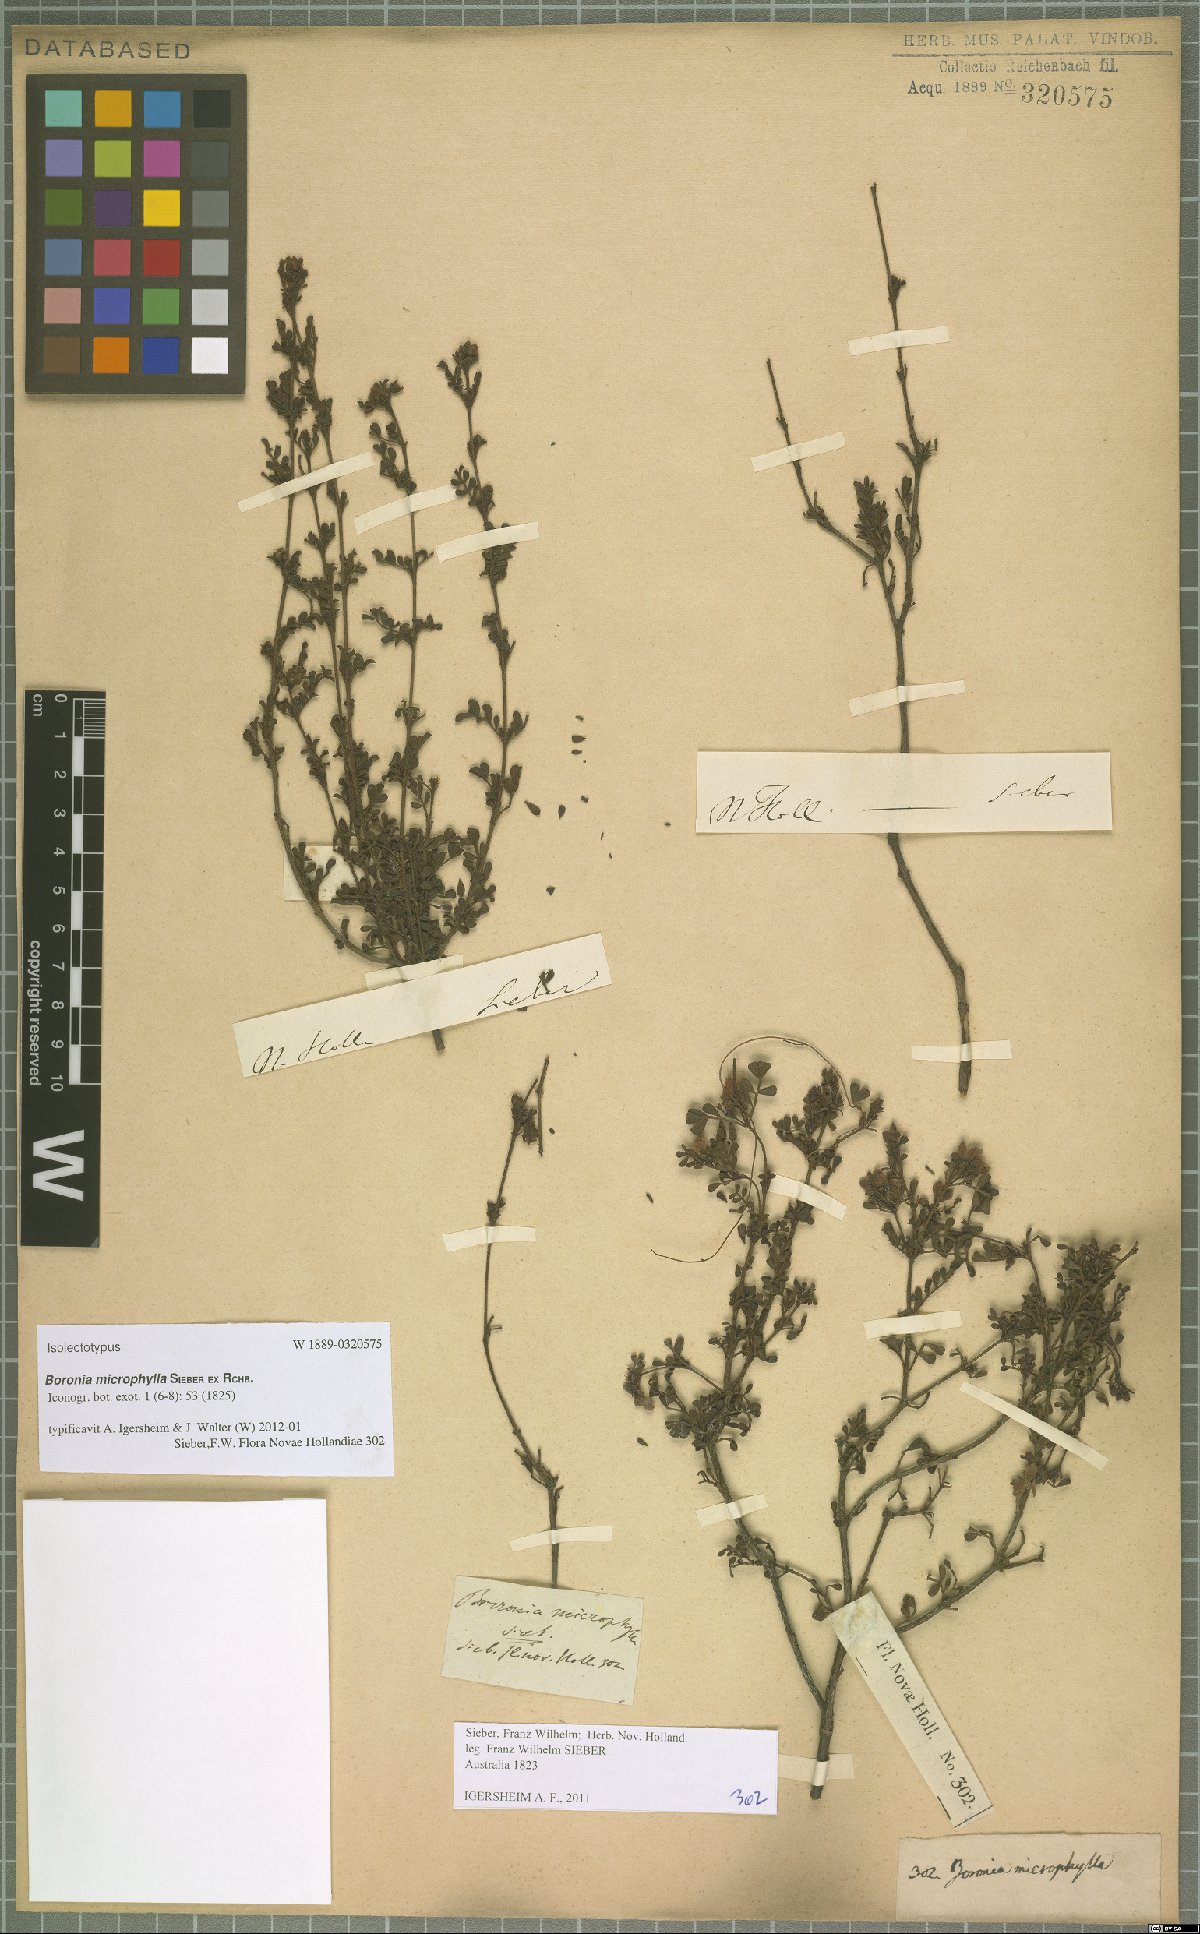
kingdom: Plantae
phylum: Tracheophyta
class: Magnoliopsida
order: Sapindales
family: Rutaceae
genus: Boronia
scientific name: Boronia microphylla
